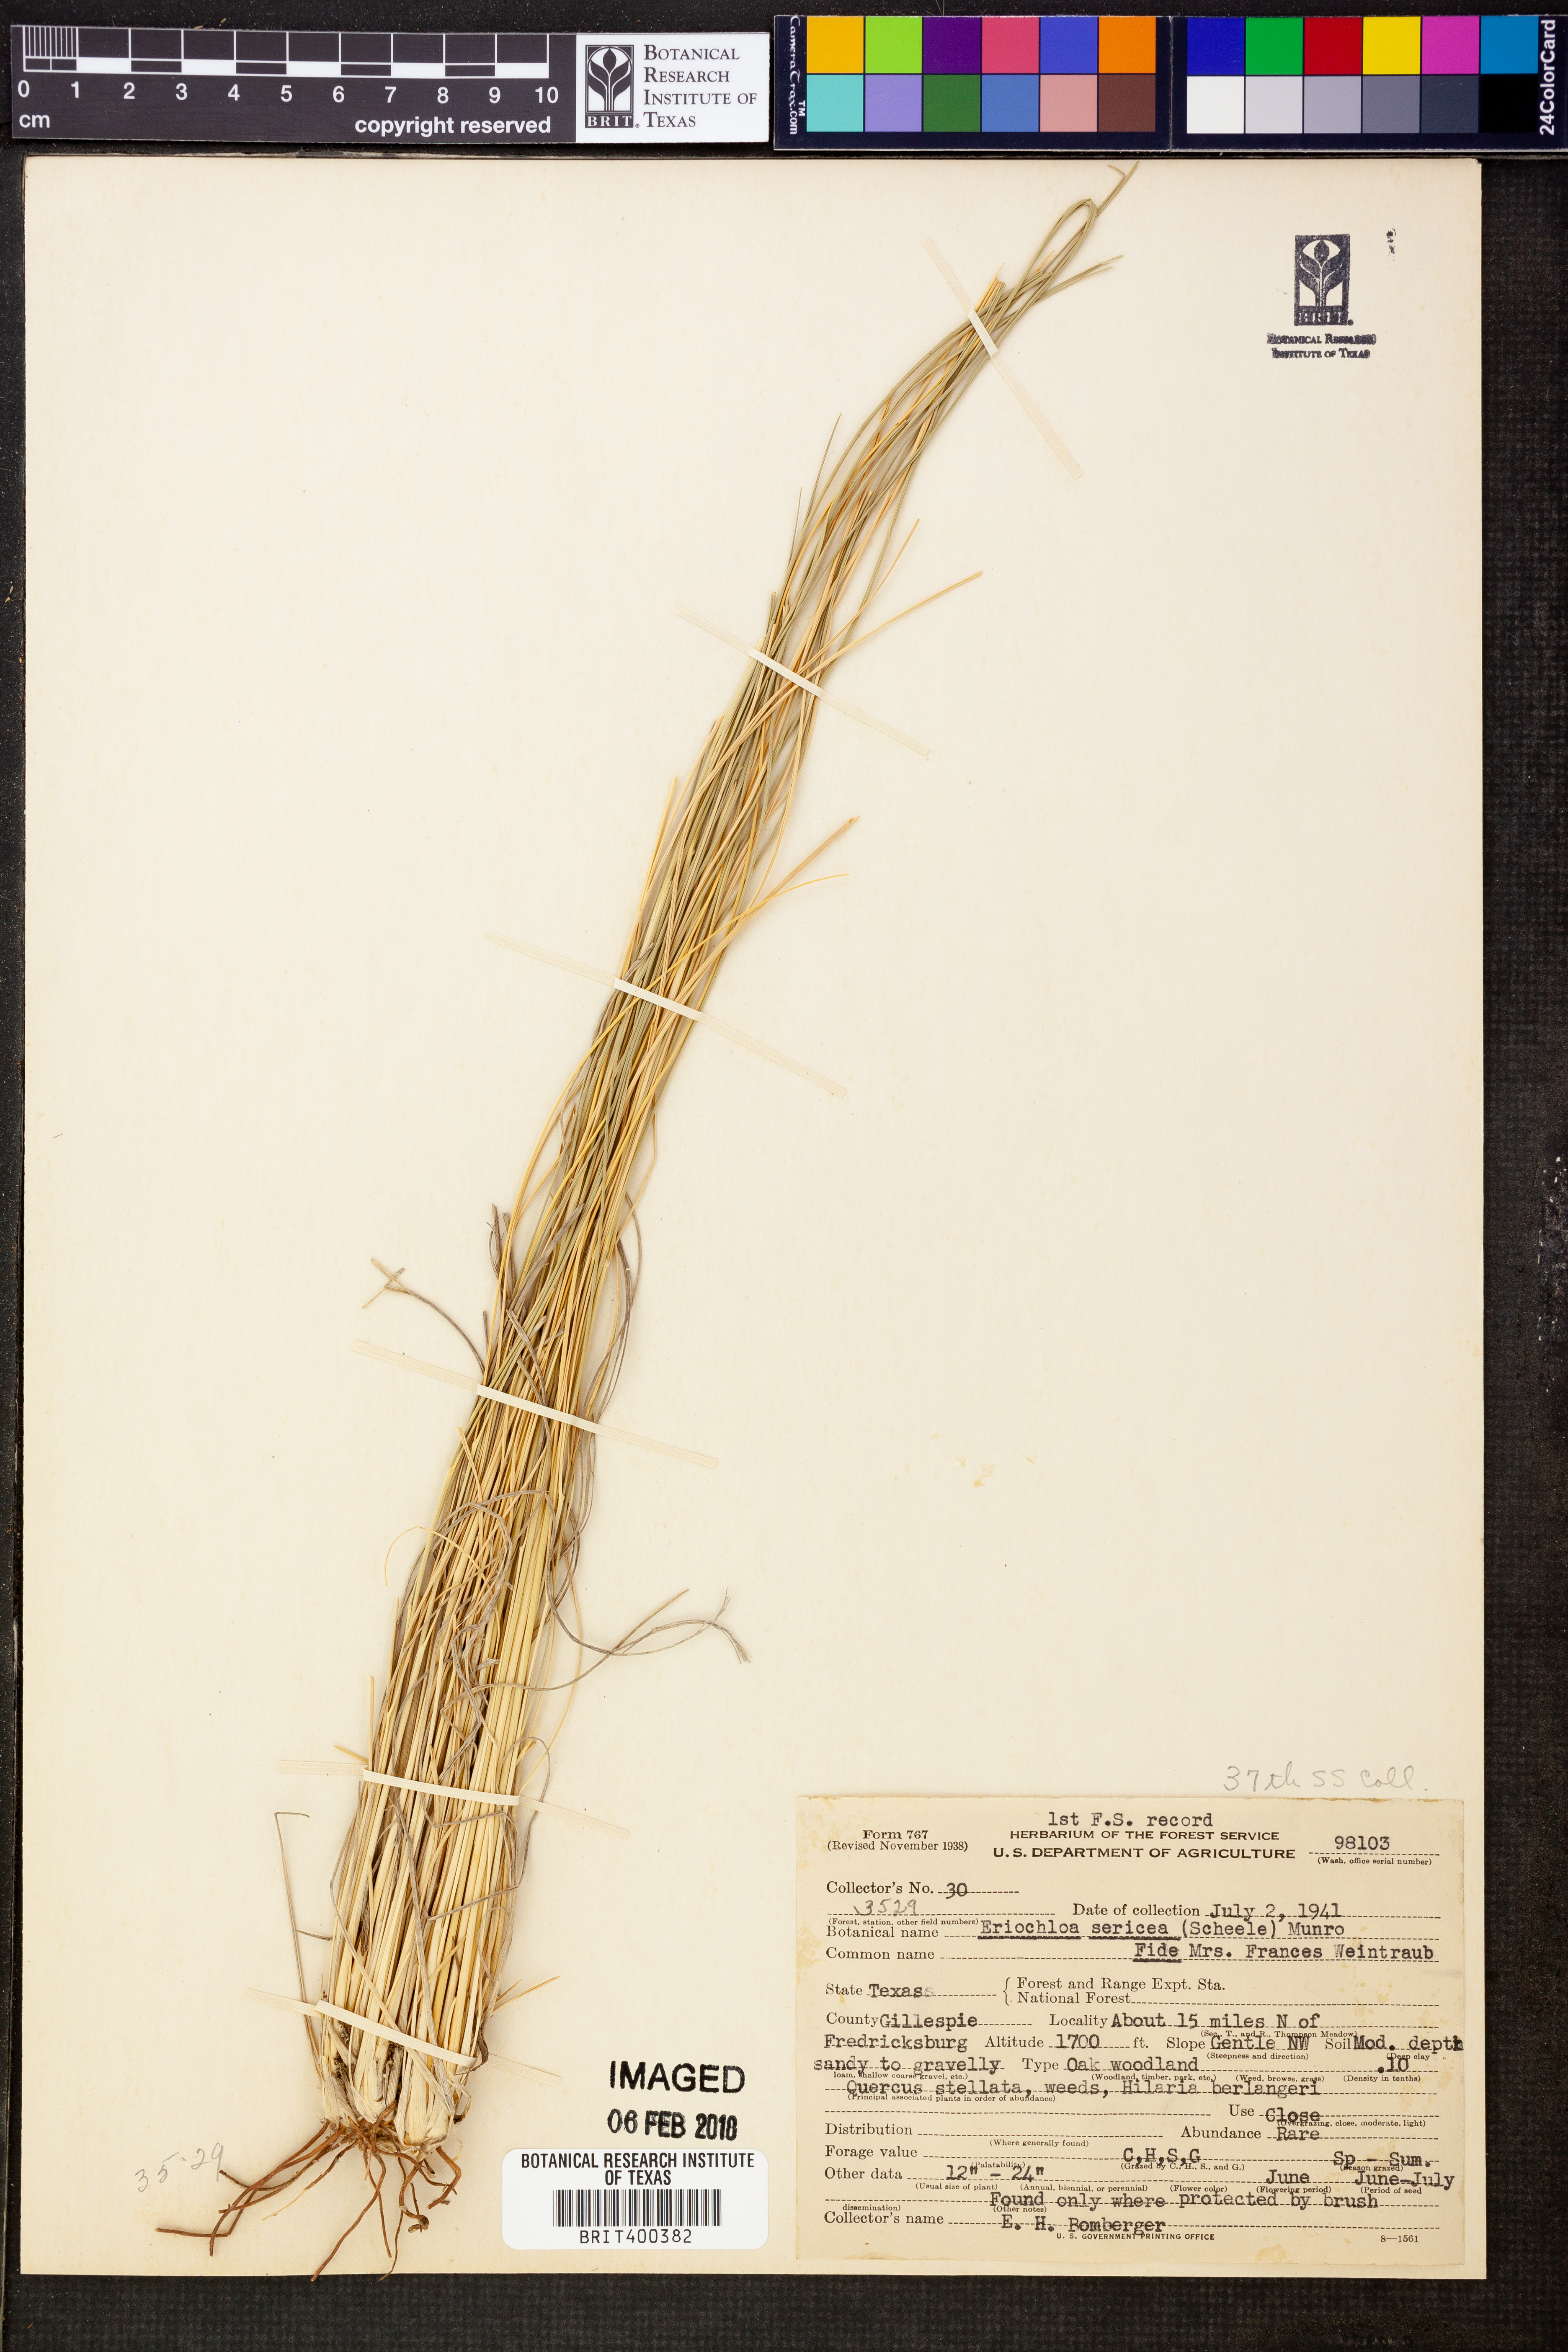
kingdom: Plantae
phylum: Tracheophyta
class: Liliopsida
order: Poales
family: Poaceae
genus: Eriochloa
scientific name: Eriochloa sericea
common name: Texas cup grass
